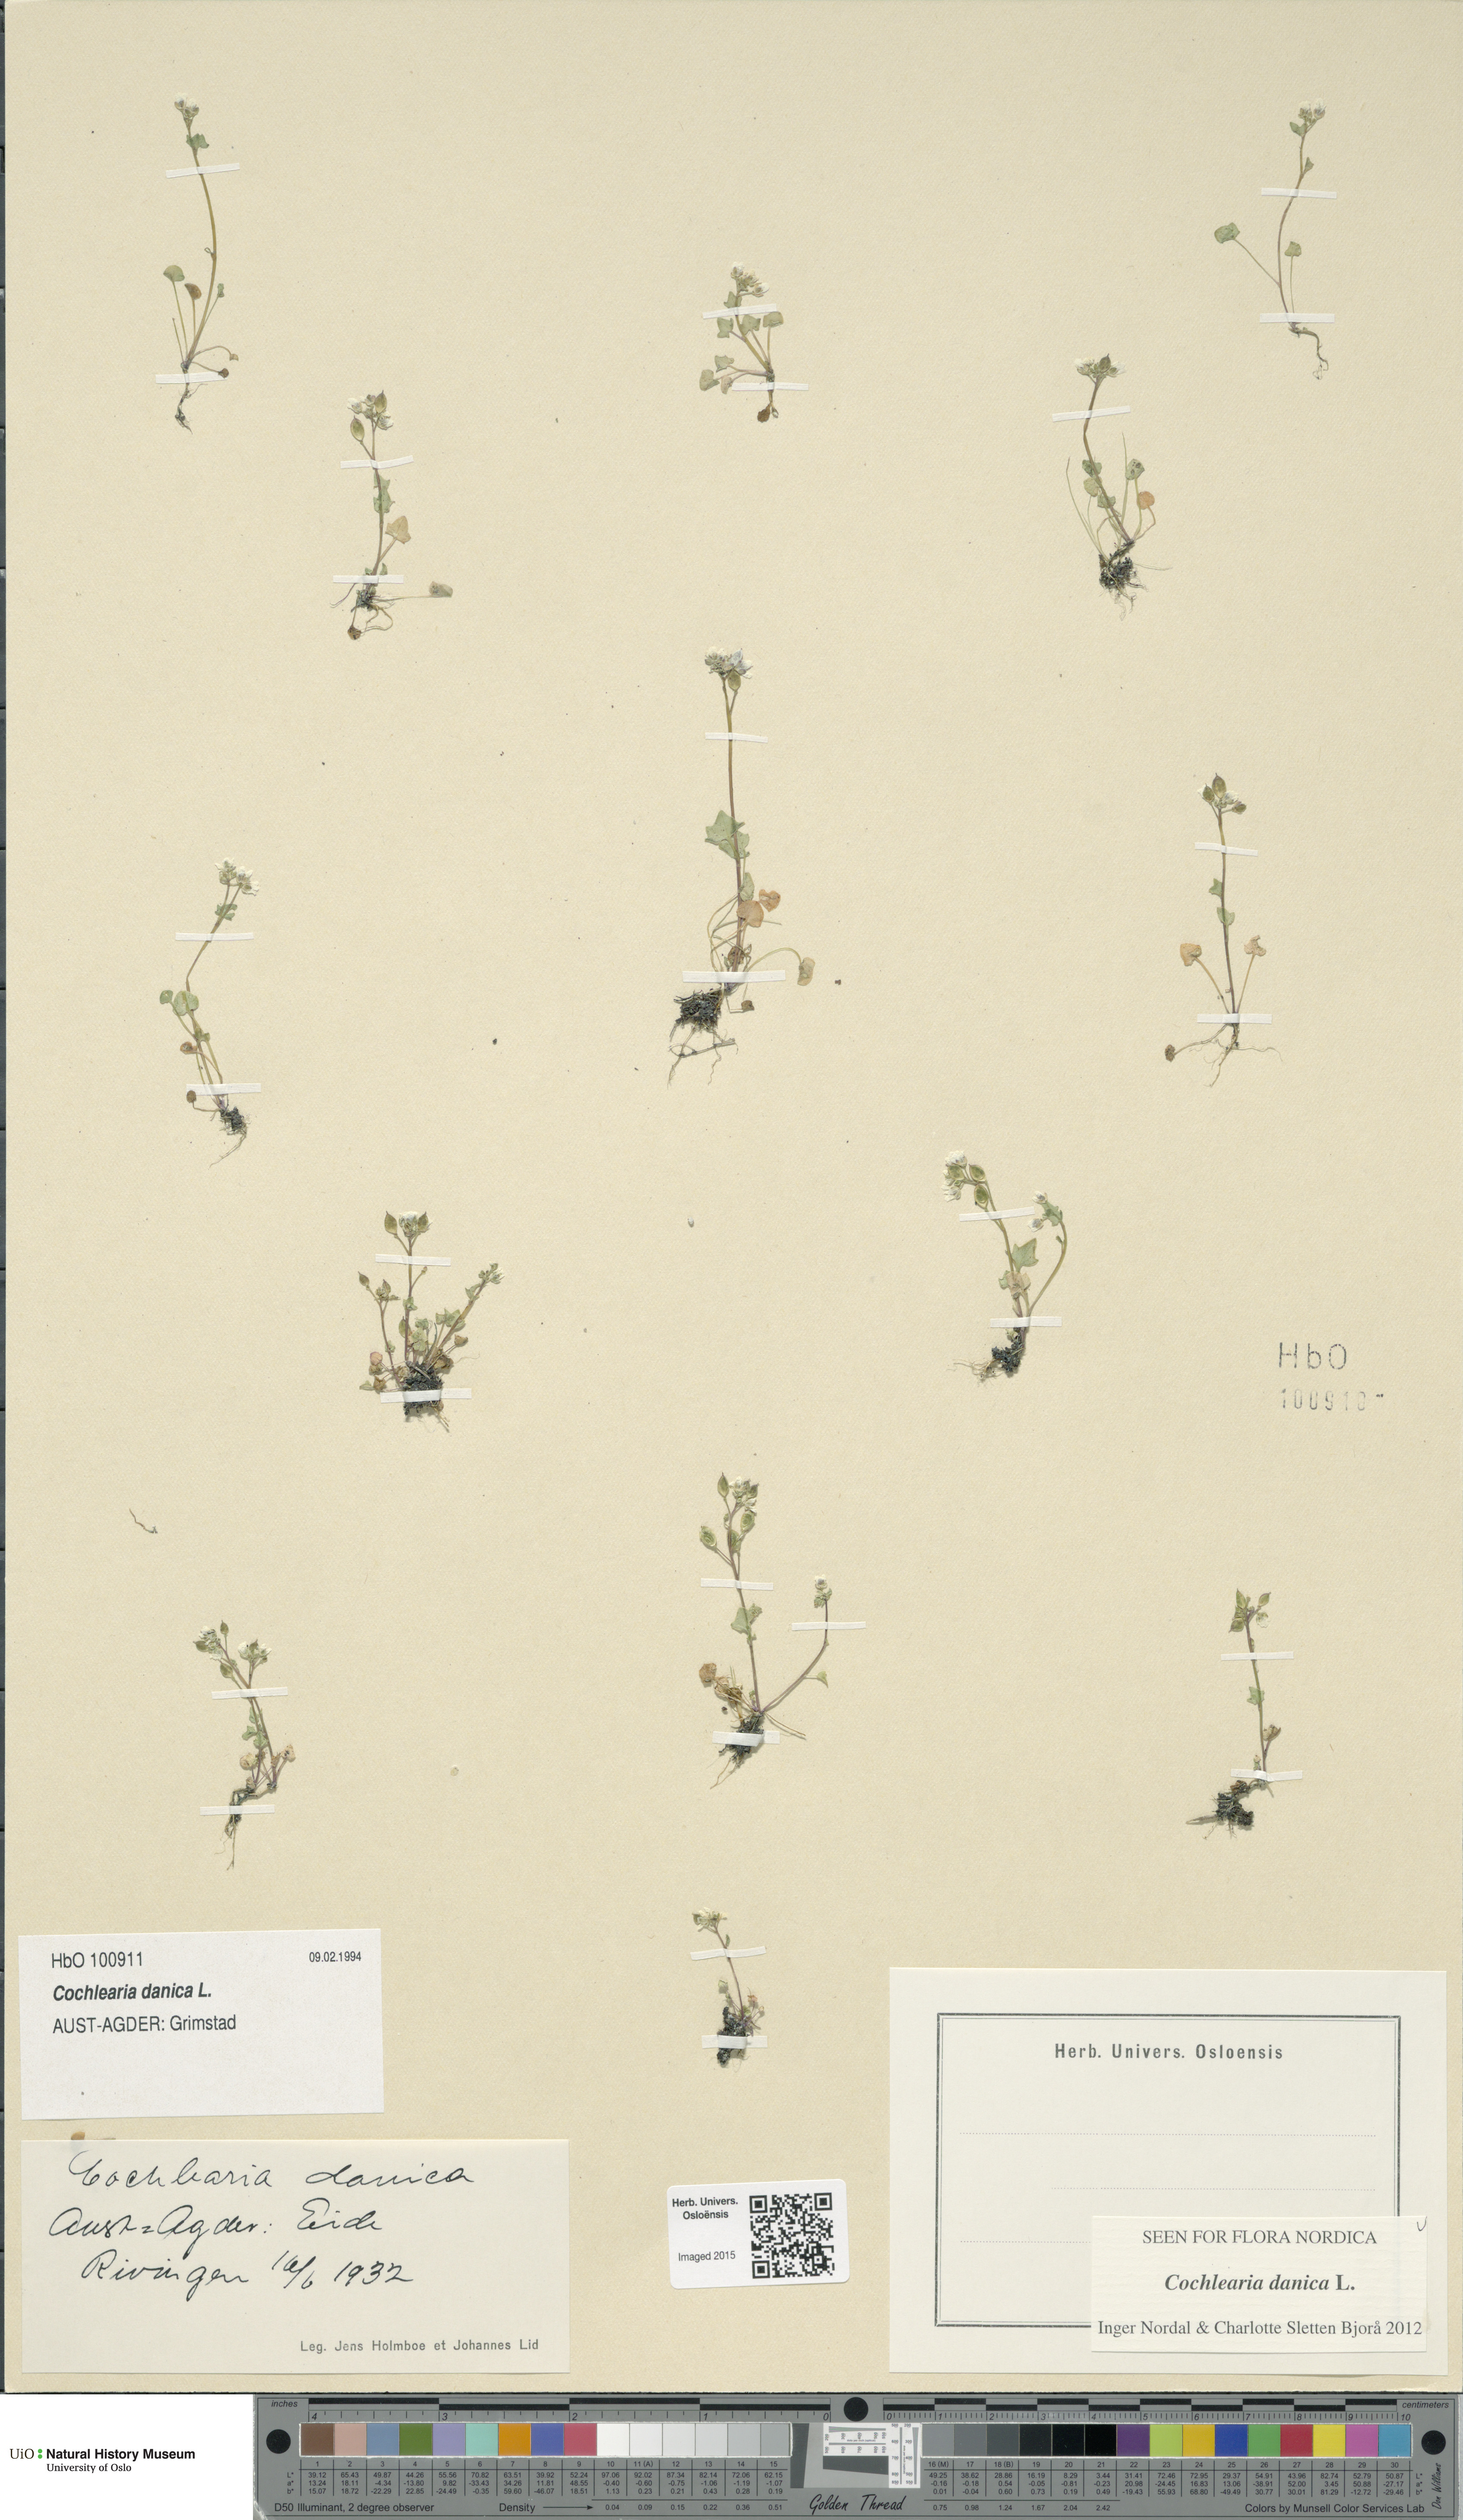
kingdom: Plantae
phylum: Tracheophyta
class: Magnoliopsida
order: Brassicales
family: Brassicaceae
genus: Cochlearia
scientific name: Cochlearia danica
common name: Early scurvygrass
